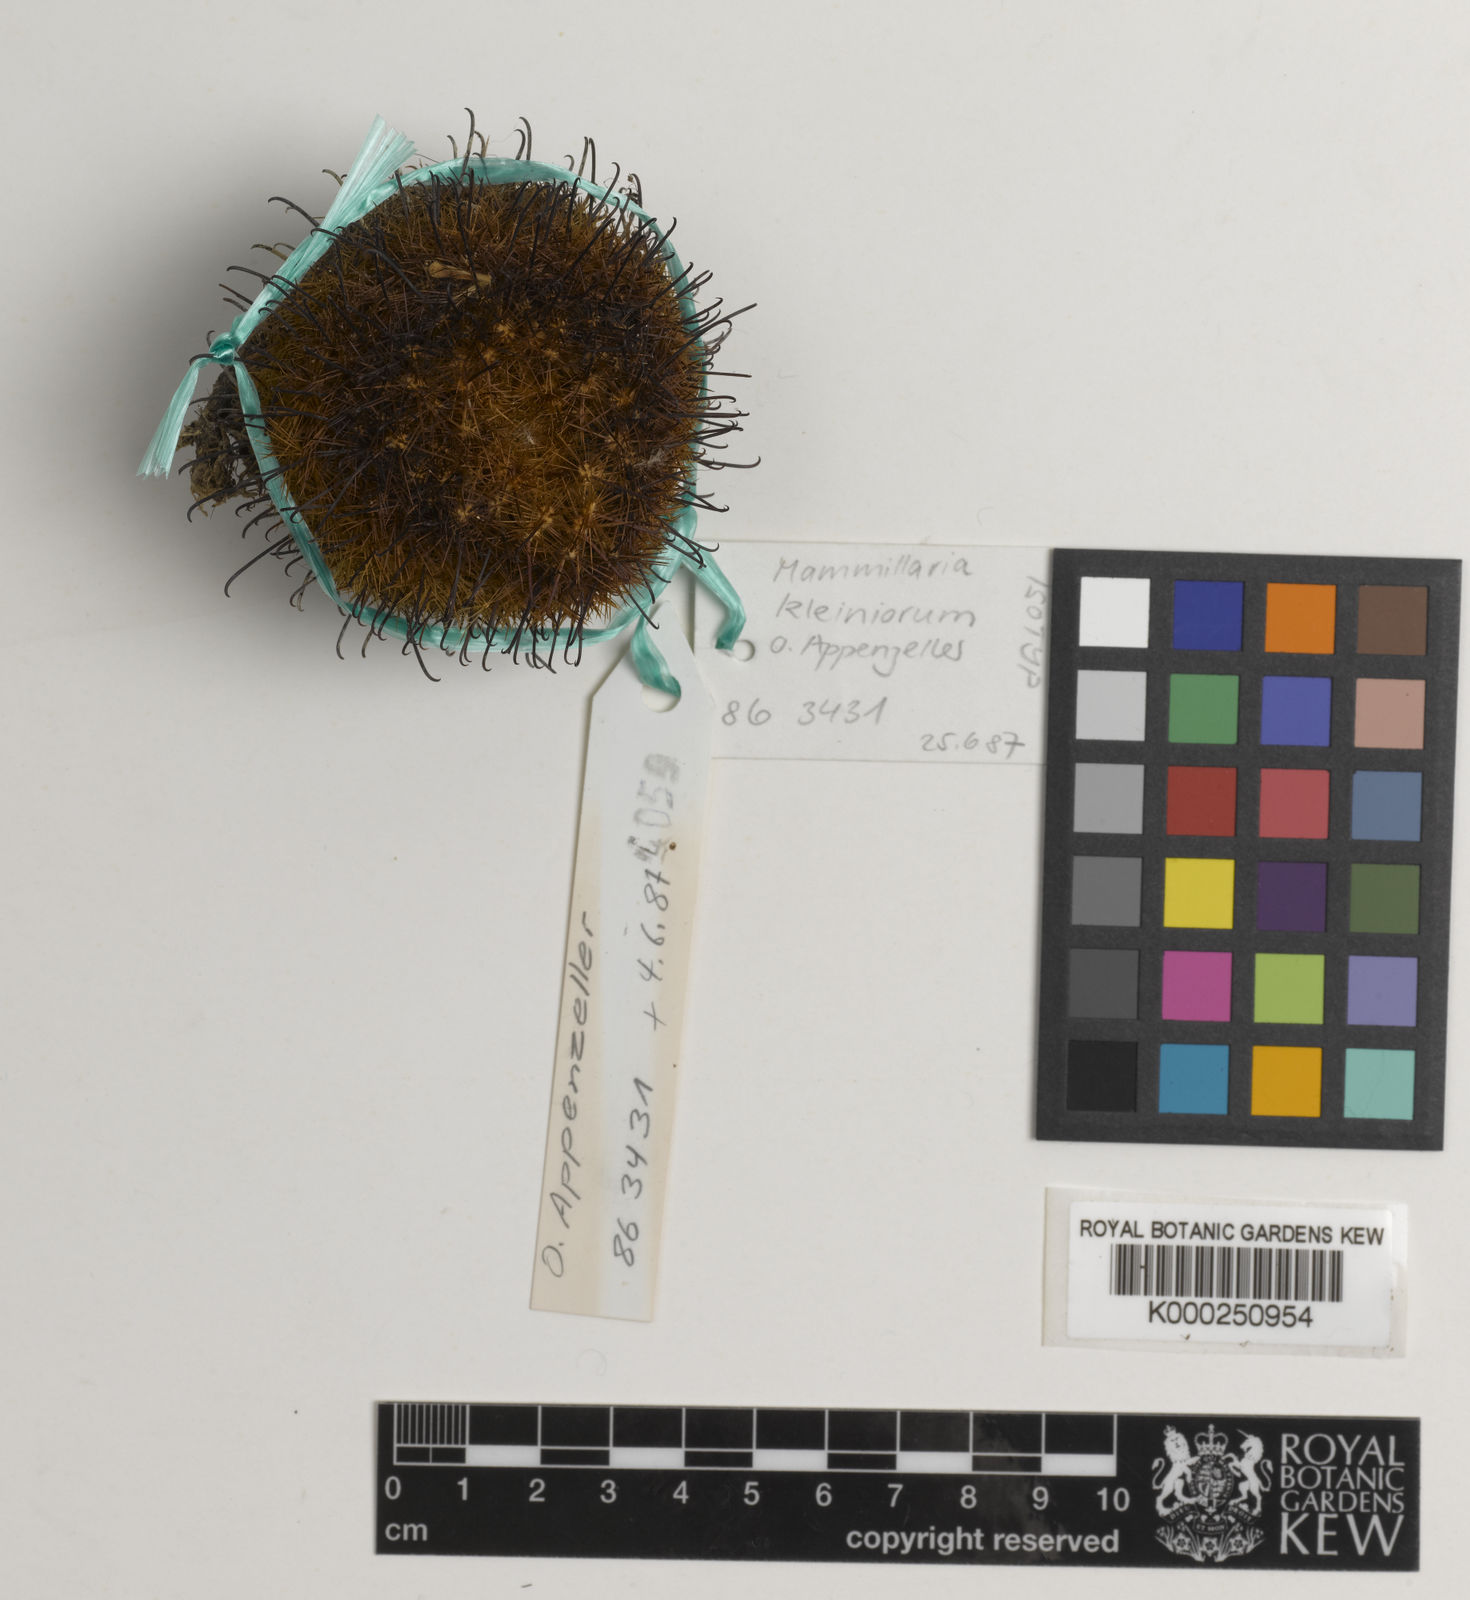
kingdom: Plantae
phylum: Tracheophyta
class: Magnoliopsida
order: Caryophyllales
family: Cactaceae
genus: Mammillaria
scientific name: Mammillaria jaliscana
